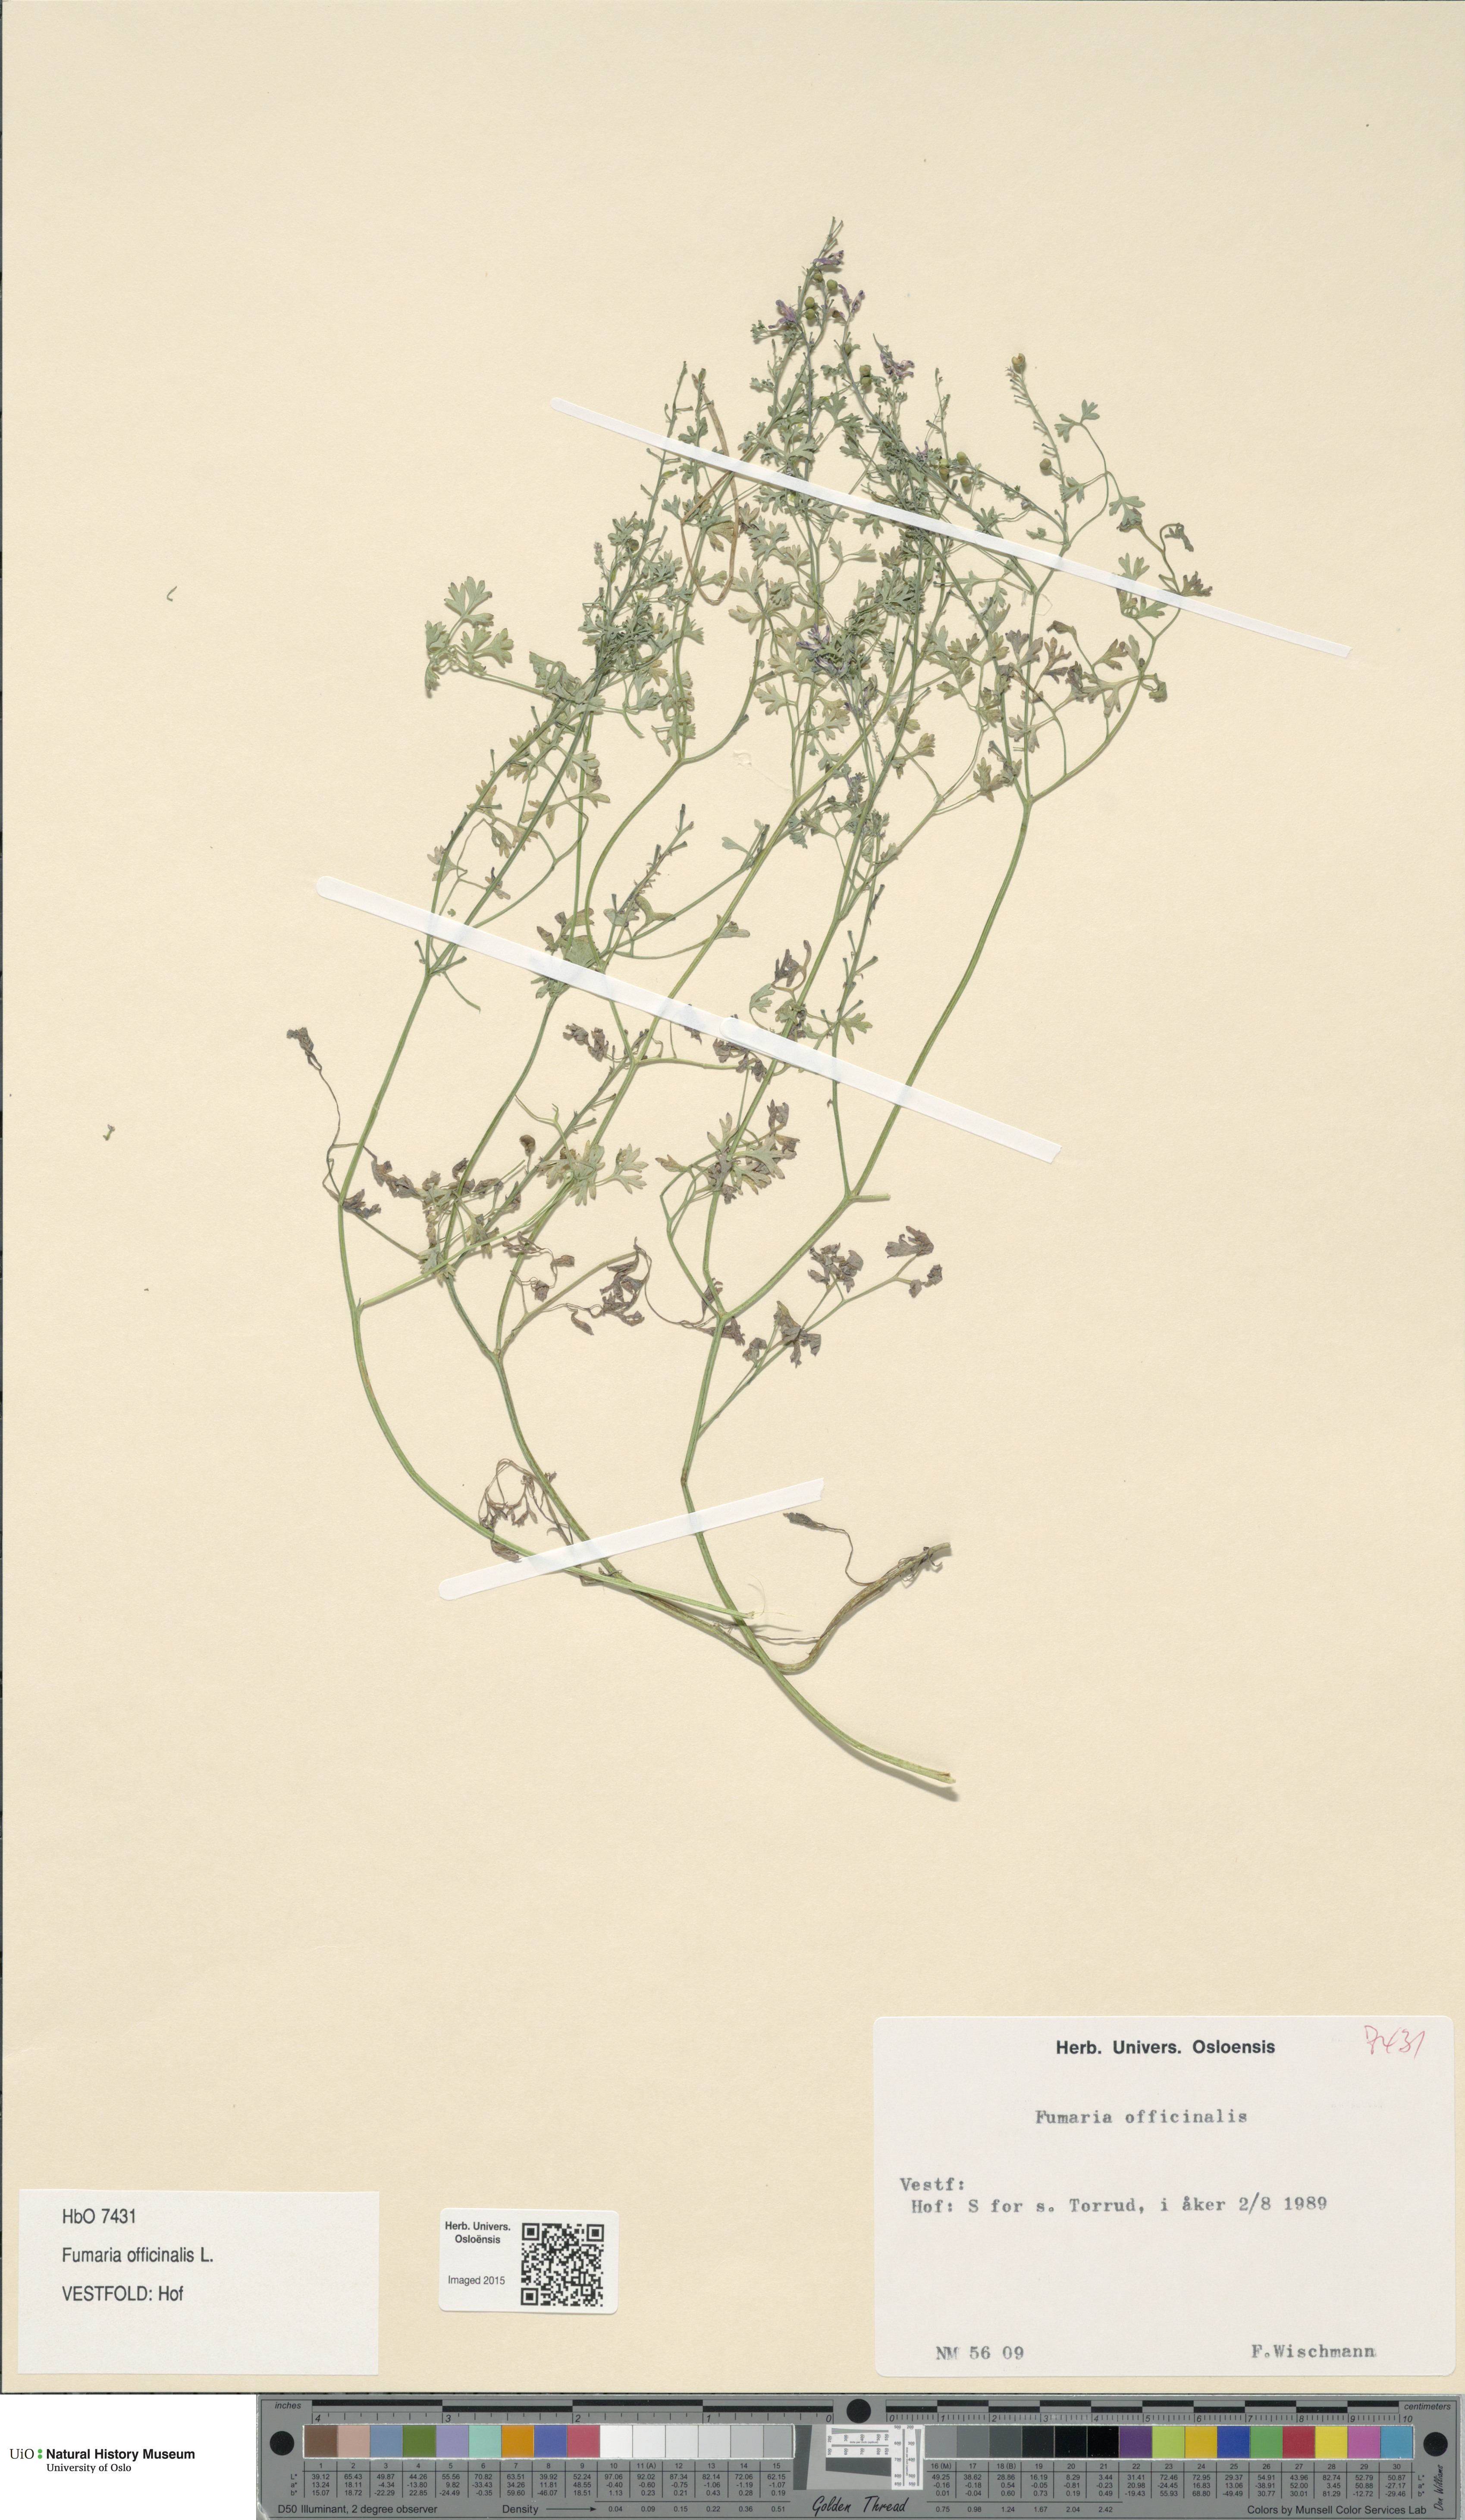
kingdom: Plantae
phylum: Tracheophyta
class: Magnoliopsida
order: Ranunculales
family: Papaveraceae
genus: Fumaria
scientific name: Fumaria officinalis
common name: Common fumitory
